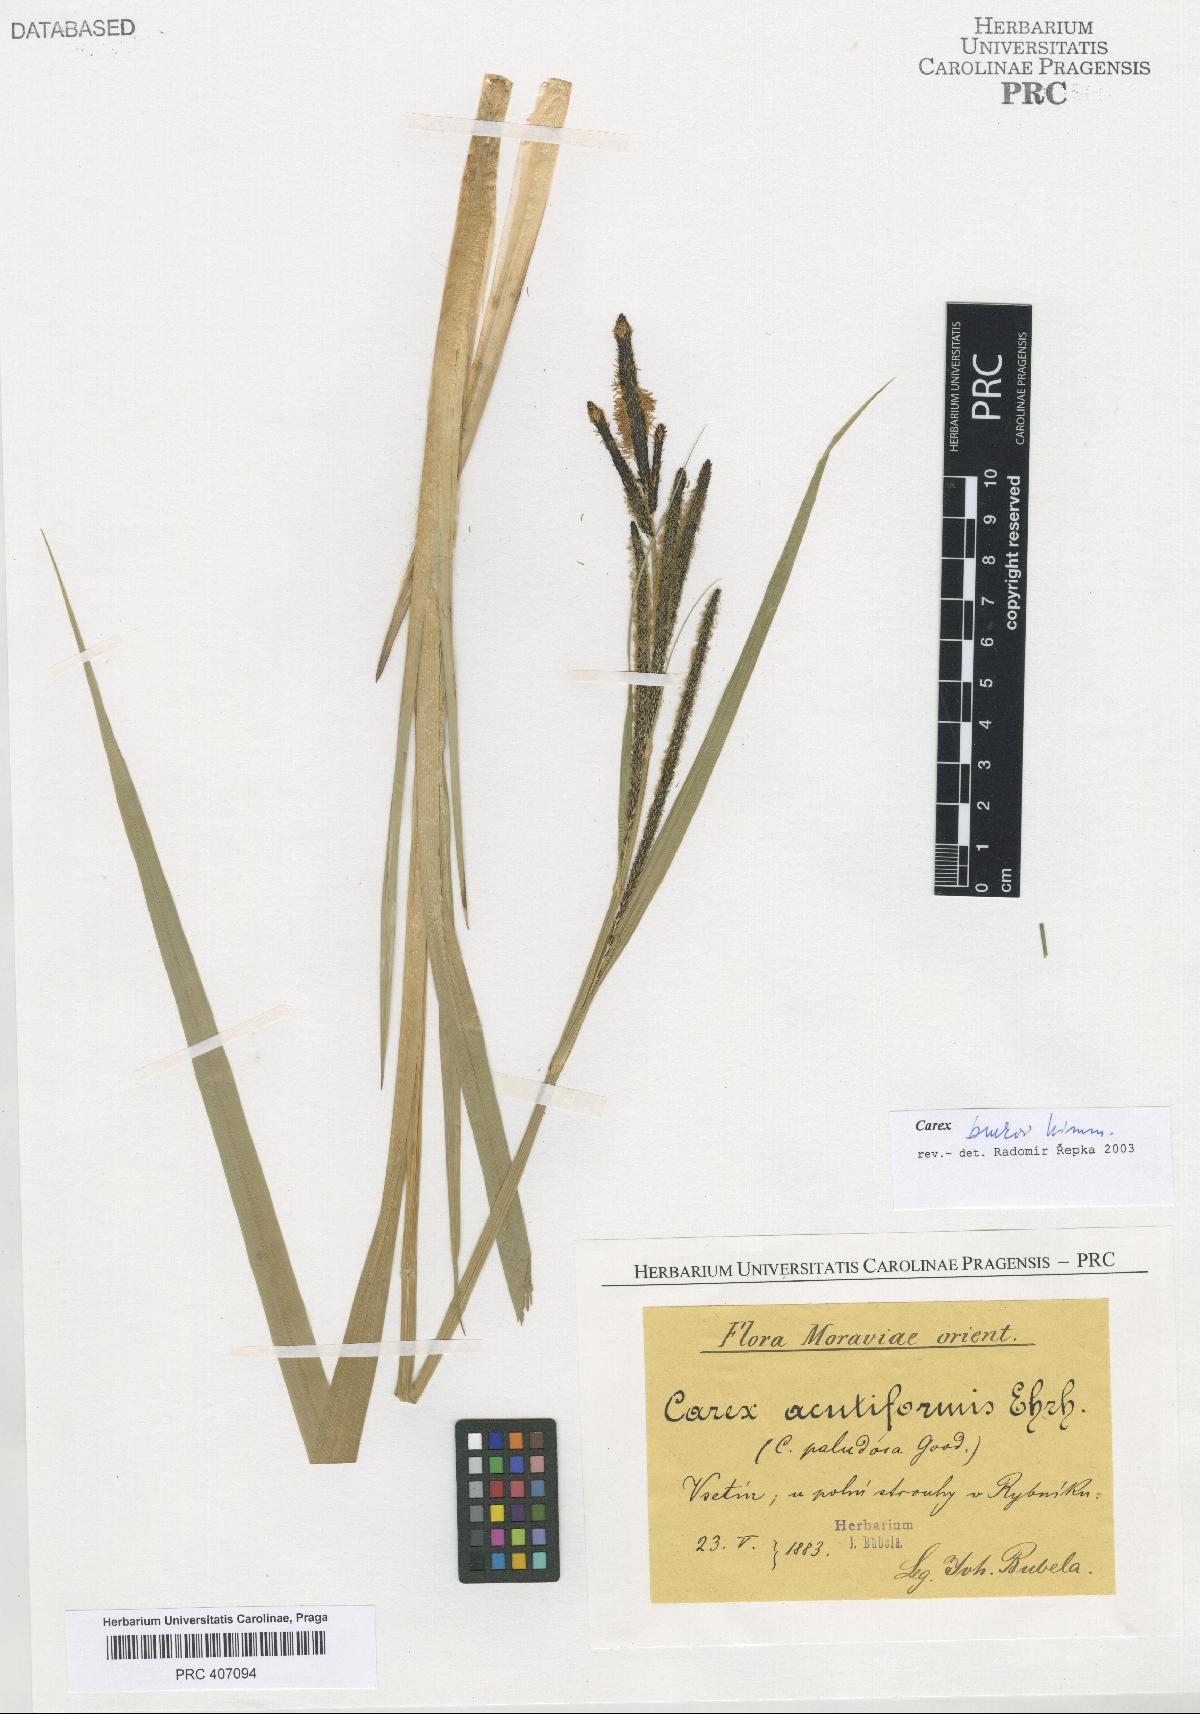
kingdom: Plantae
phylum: Tracheophyta
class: Liliopsida
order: Poales
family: Cyperaceae
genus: Carex
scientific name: Carex buekii
